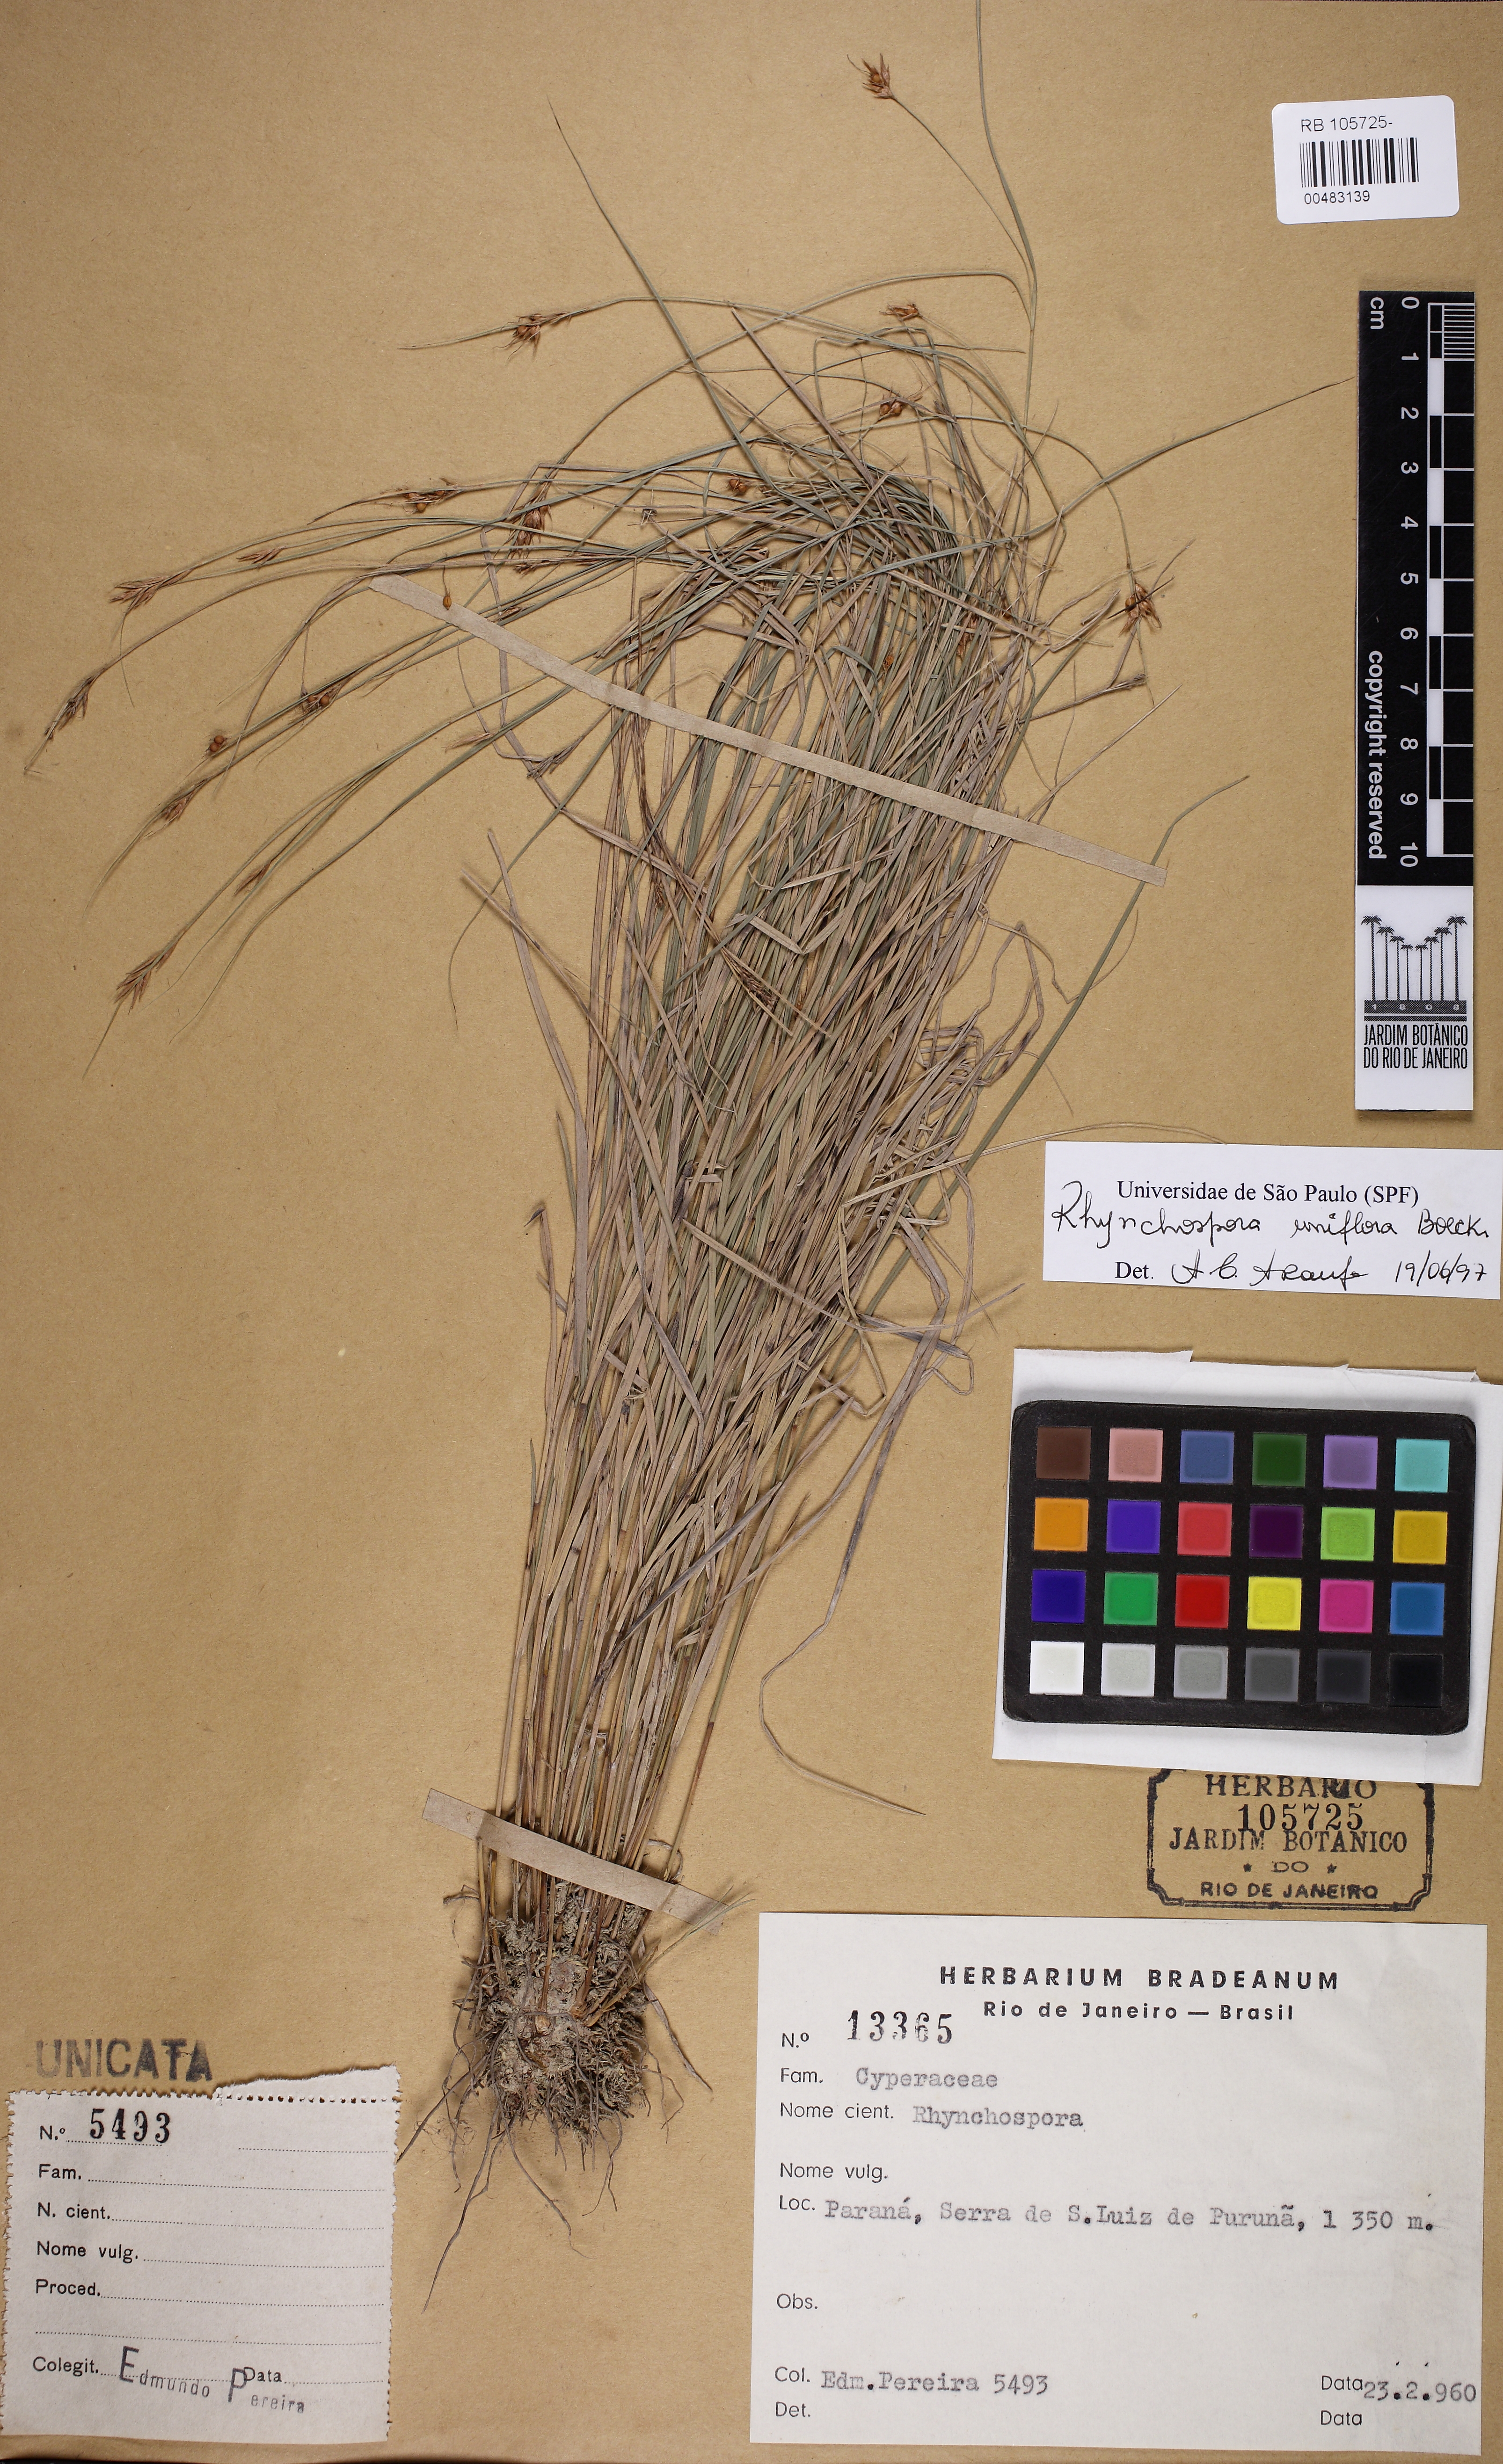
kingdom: Plantae
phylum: Tracheophyta
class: Liliopsida
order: Poales
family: Cyperaceae
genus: Rhynchospora
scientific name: Rhynchospora biflora
